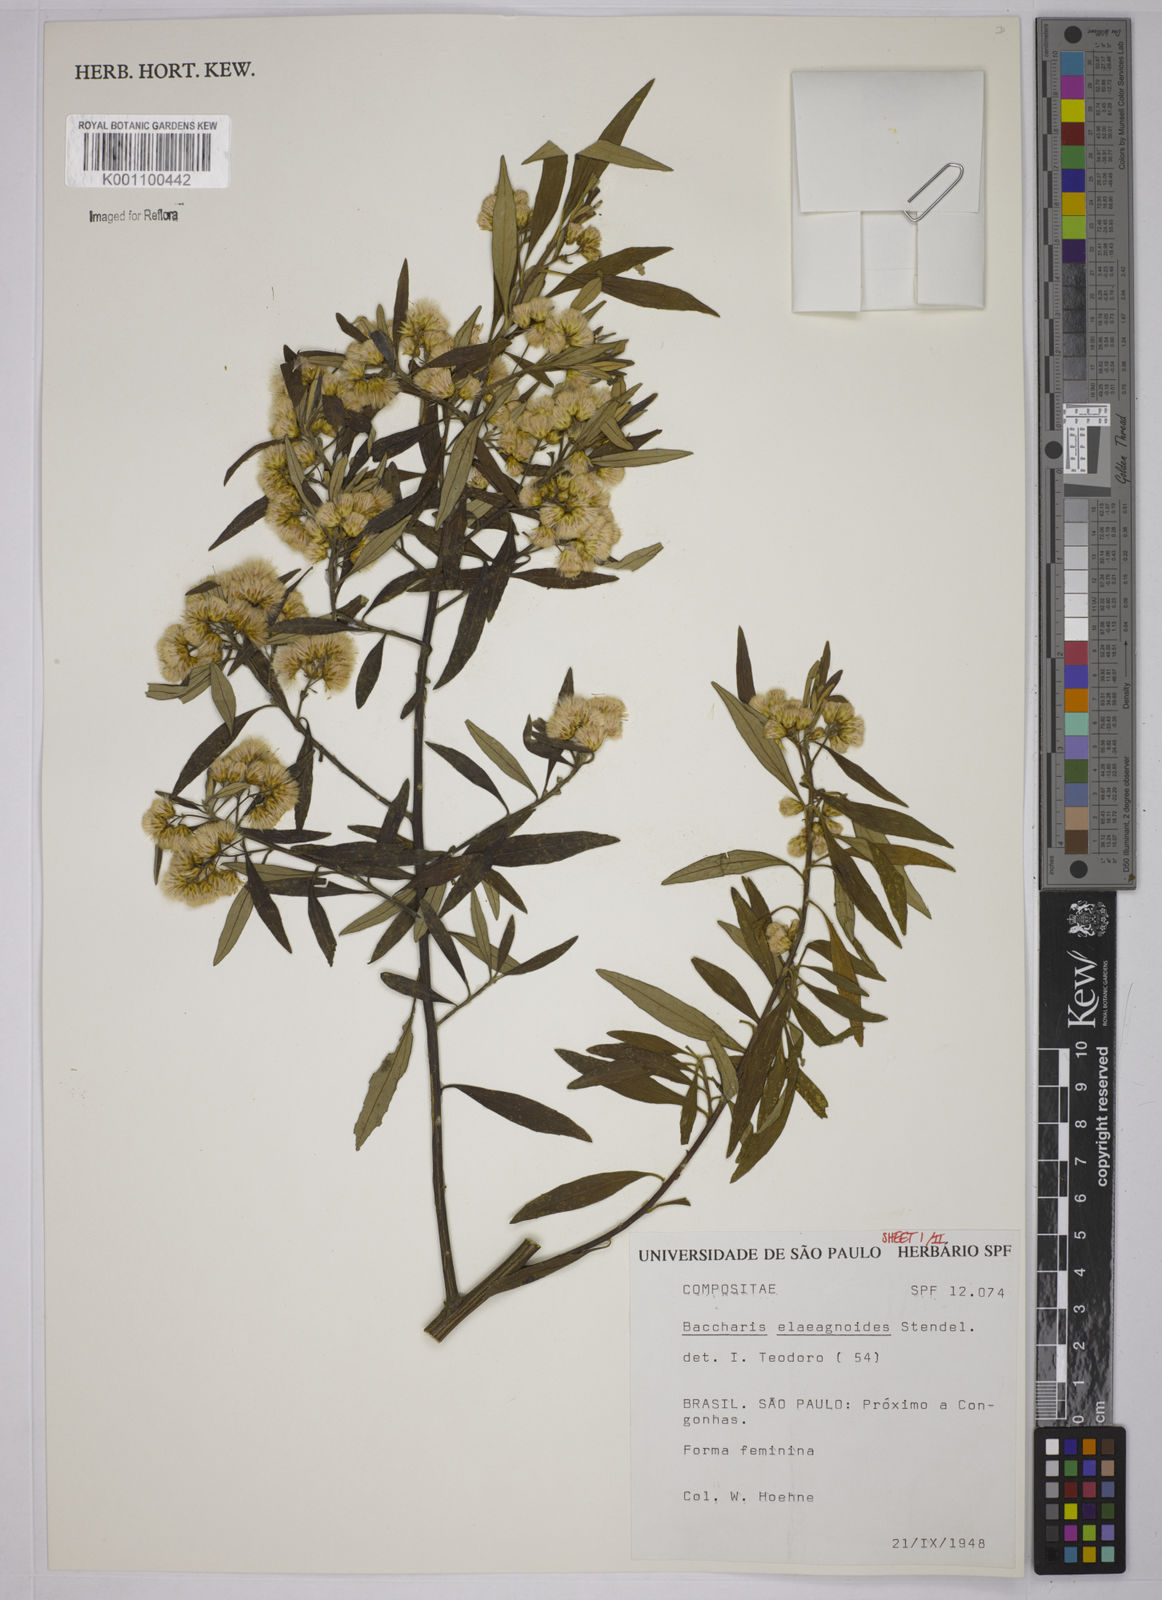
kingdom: Plantae
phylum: Tracheophyta
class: Magnoliopsida
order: Asterales
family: Asteraceae
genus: Baccharis
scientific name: Baccharis
